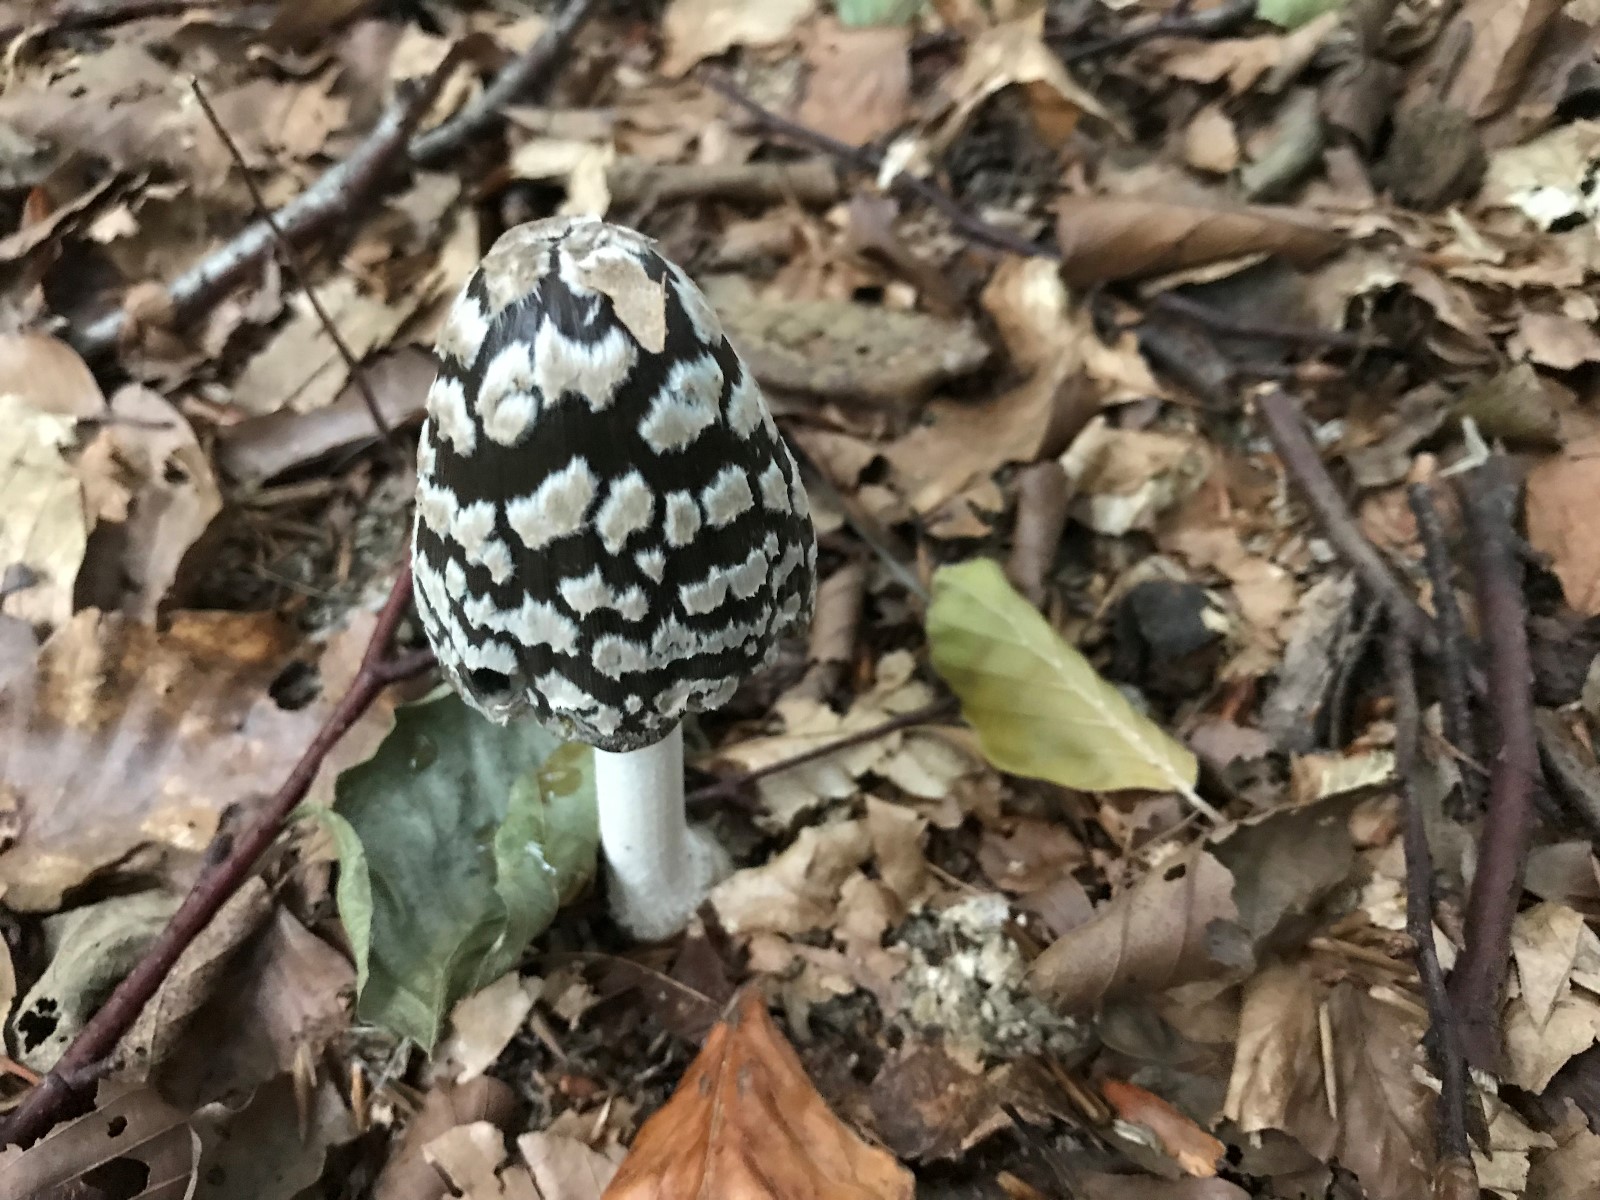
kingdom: Fungi
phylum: Basidiomycota
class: Agaricomycetes
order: Agaricales
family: Psathyrellaceae
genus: Coprinopsis
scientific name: Coprinopsis picacea
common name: skade-blækhat
